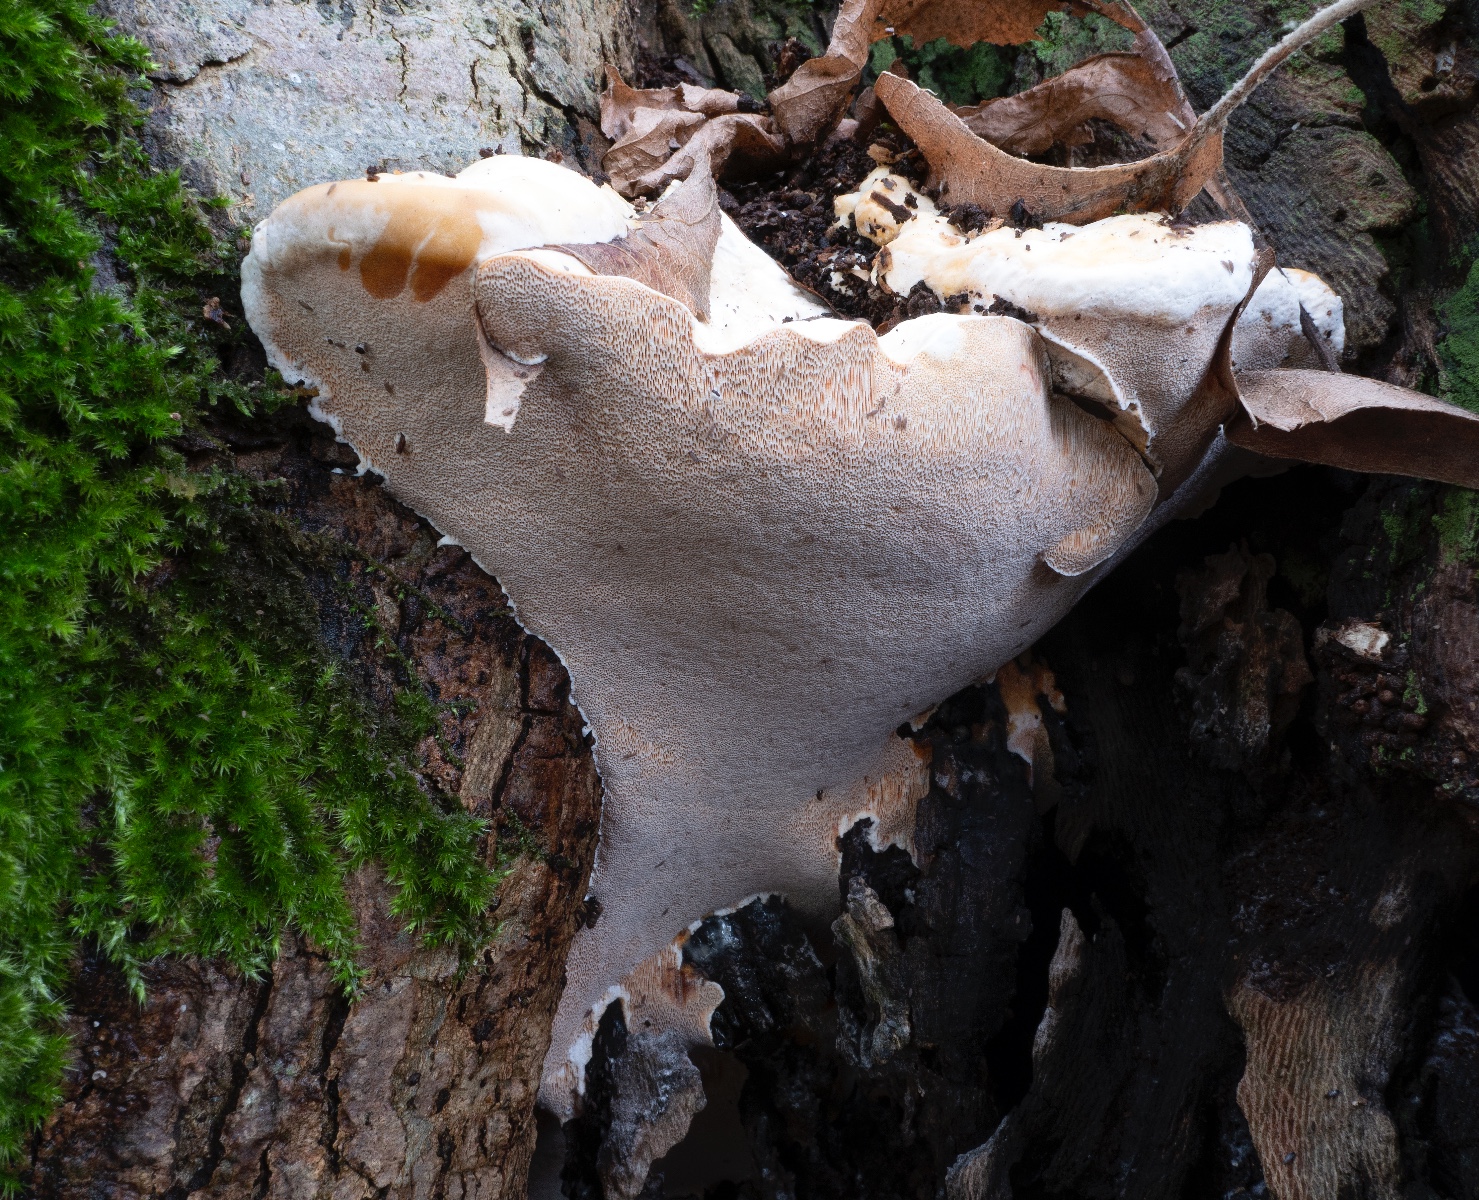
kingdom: Fungi
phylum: Basidiomycota
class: Agaricomycetes
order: Polyporales
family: Meripilaceae
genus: Rigidoporus
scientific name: Rigidoporus ulmarius
